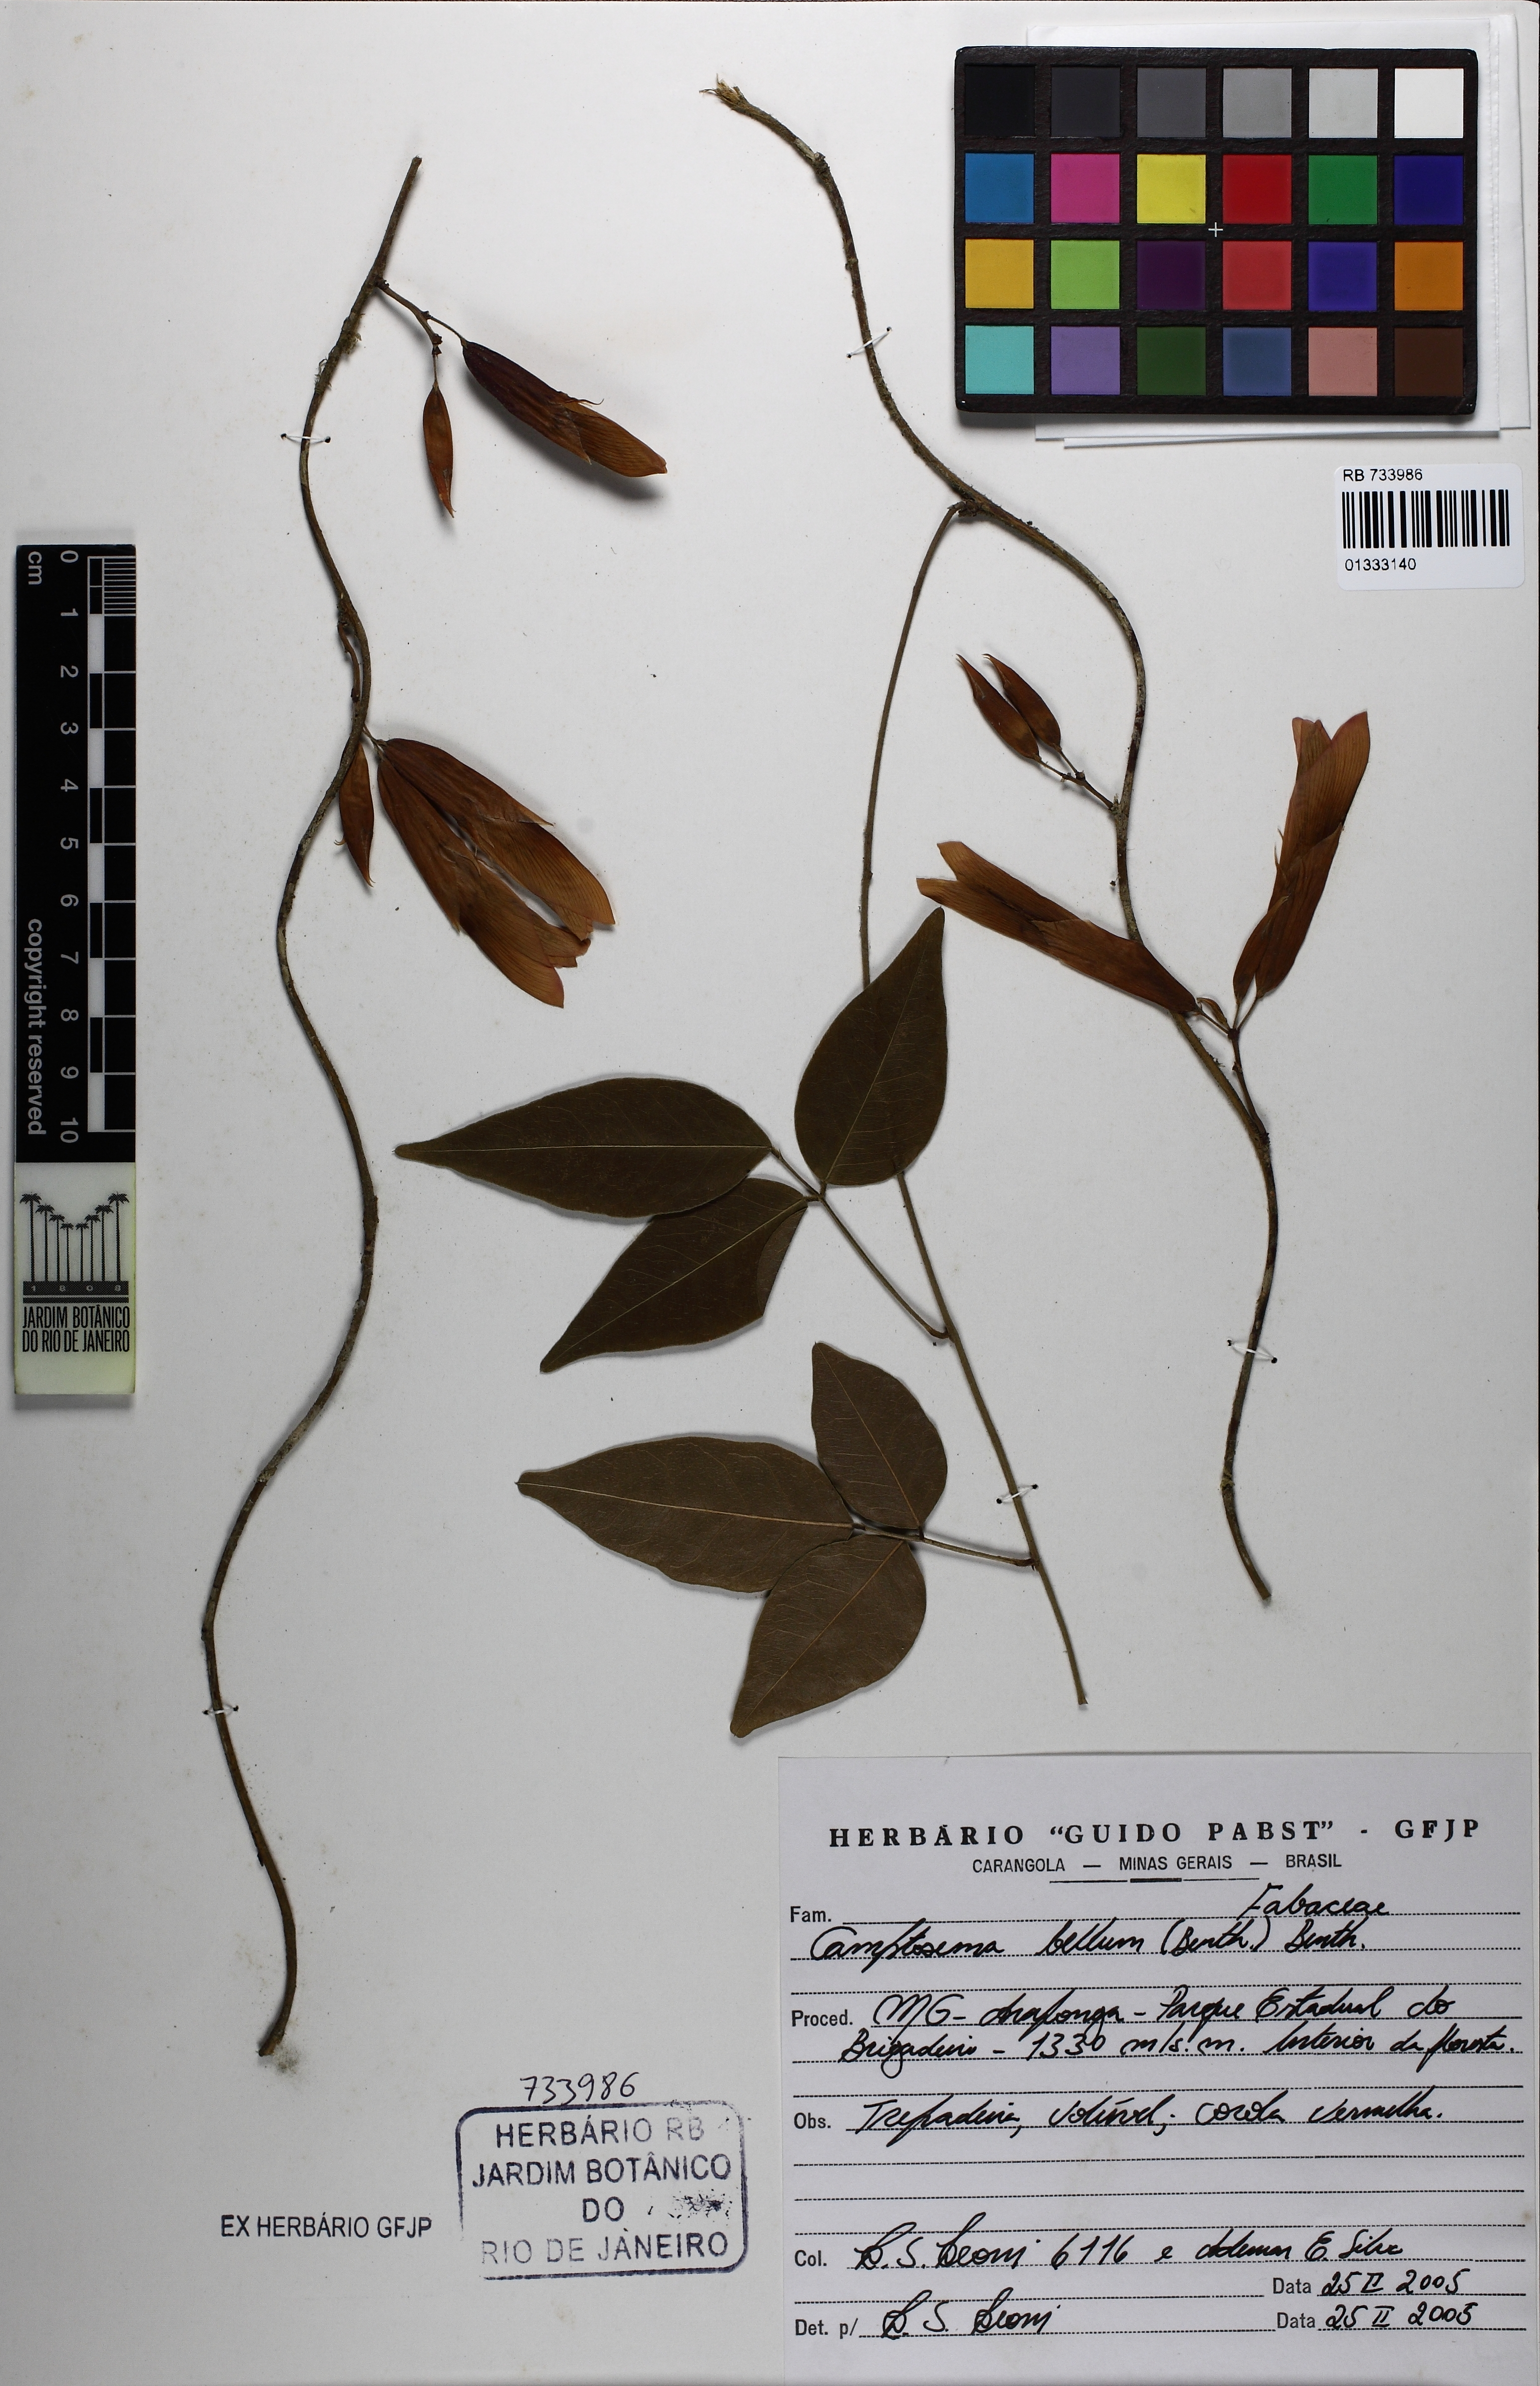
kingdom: Plantae
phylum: Tracheophyta
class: Magnoliopsida
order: Fabales
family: Fabaceae
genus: Mantiqueira
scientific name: Mantiqueira bella
